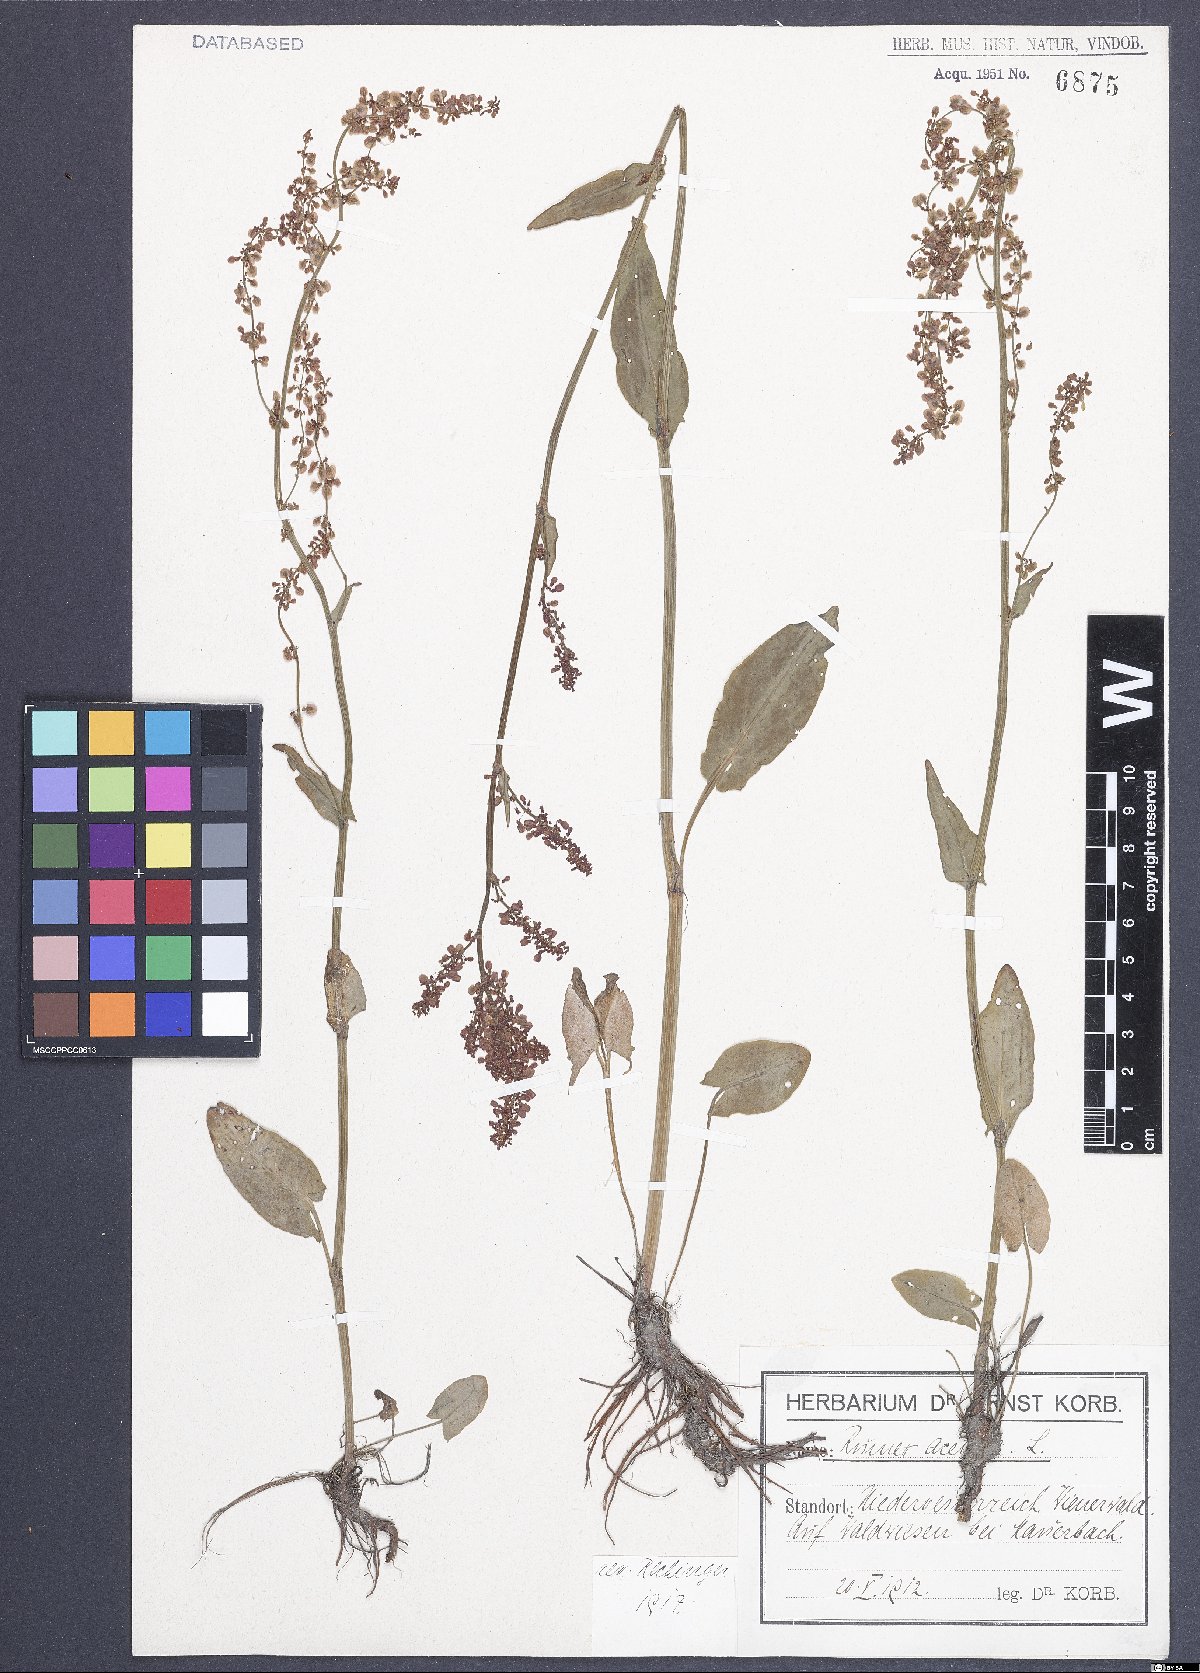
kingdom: Plantae
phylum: Tracheophyta
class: Magnoliopsida
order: Caryophyllales
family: Polygonaceae
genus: Rumex
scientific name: Rumex acetosa
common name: Garden sorrel
